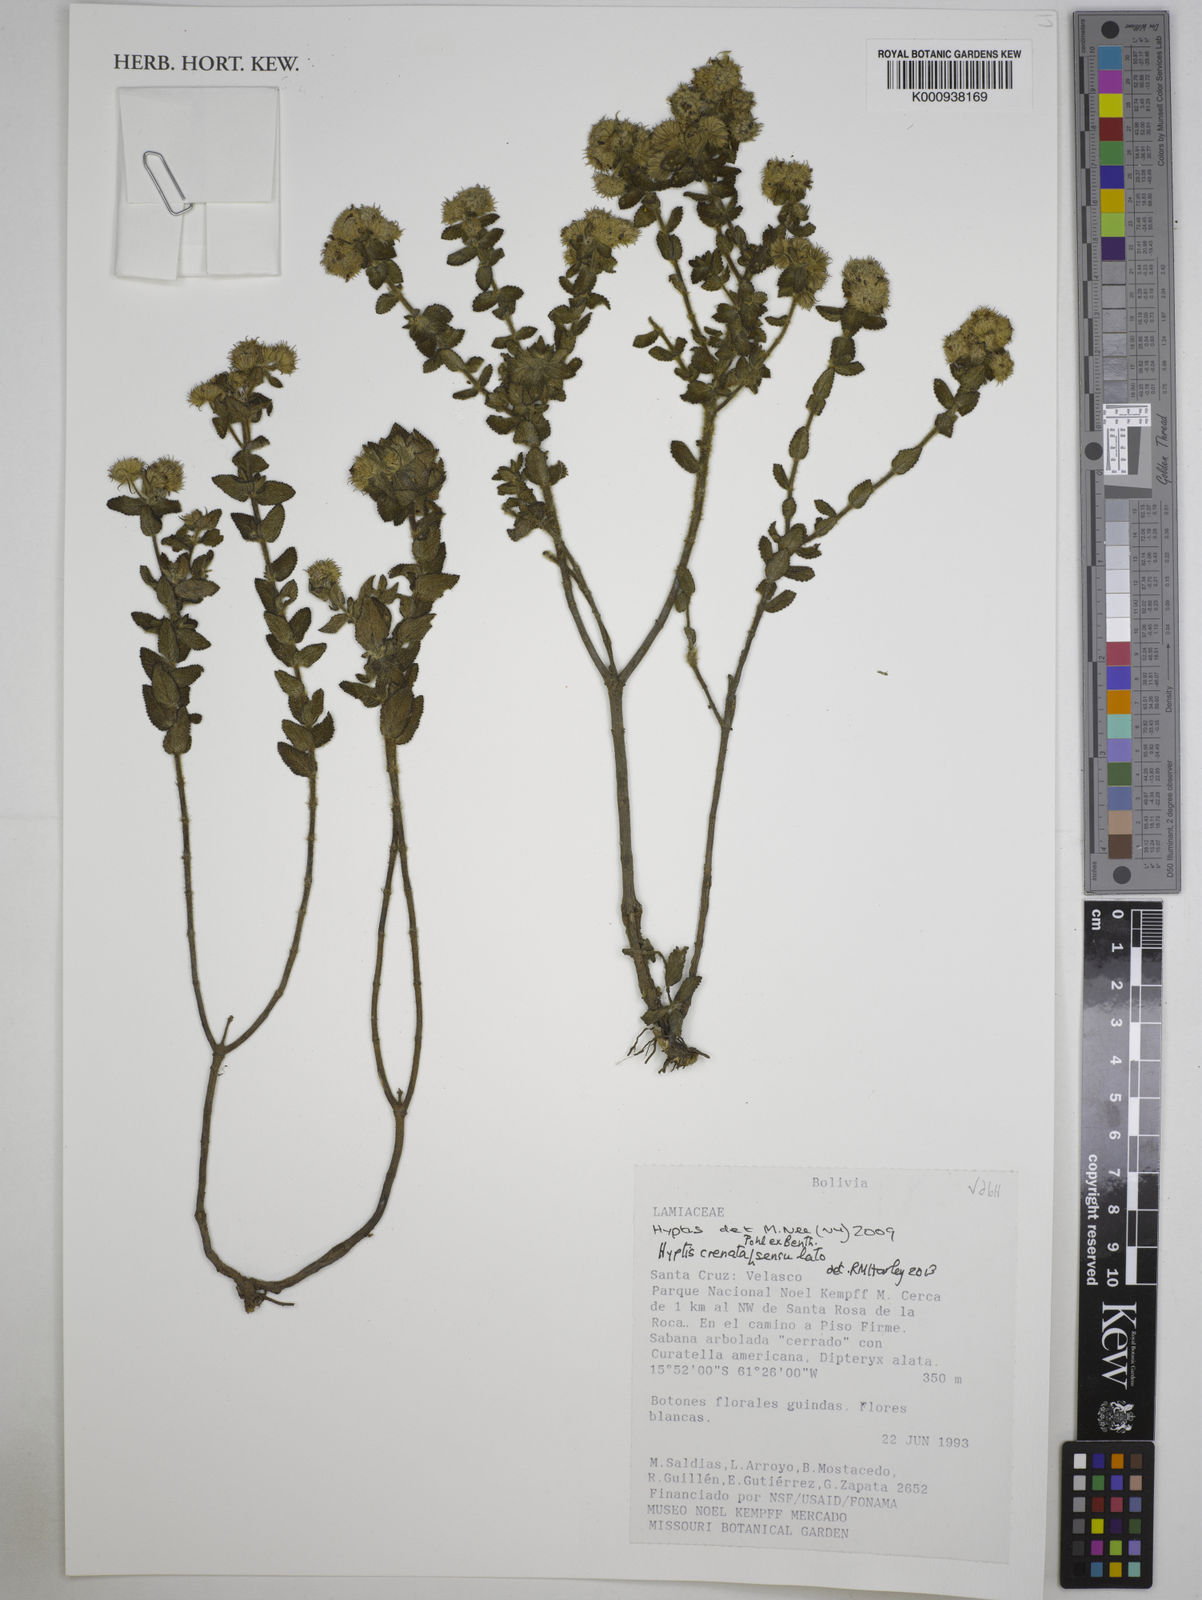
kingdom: Plantae
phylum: Tracheophyta
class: Magnoliopsida
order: Lamiales
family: Lamiaceae
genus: Hyptis
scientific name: Hyptis crenata
